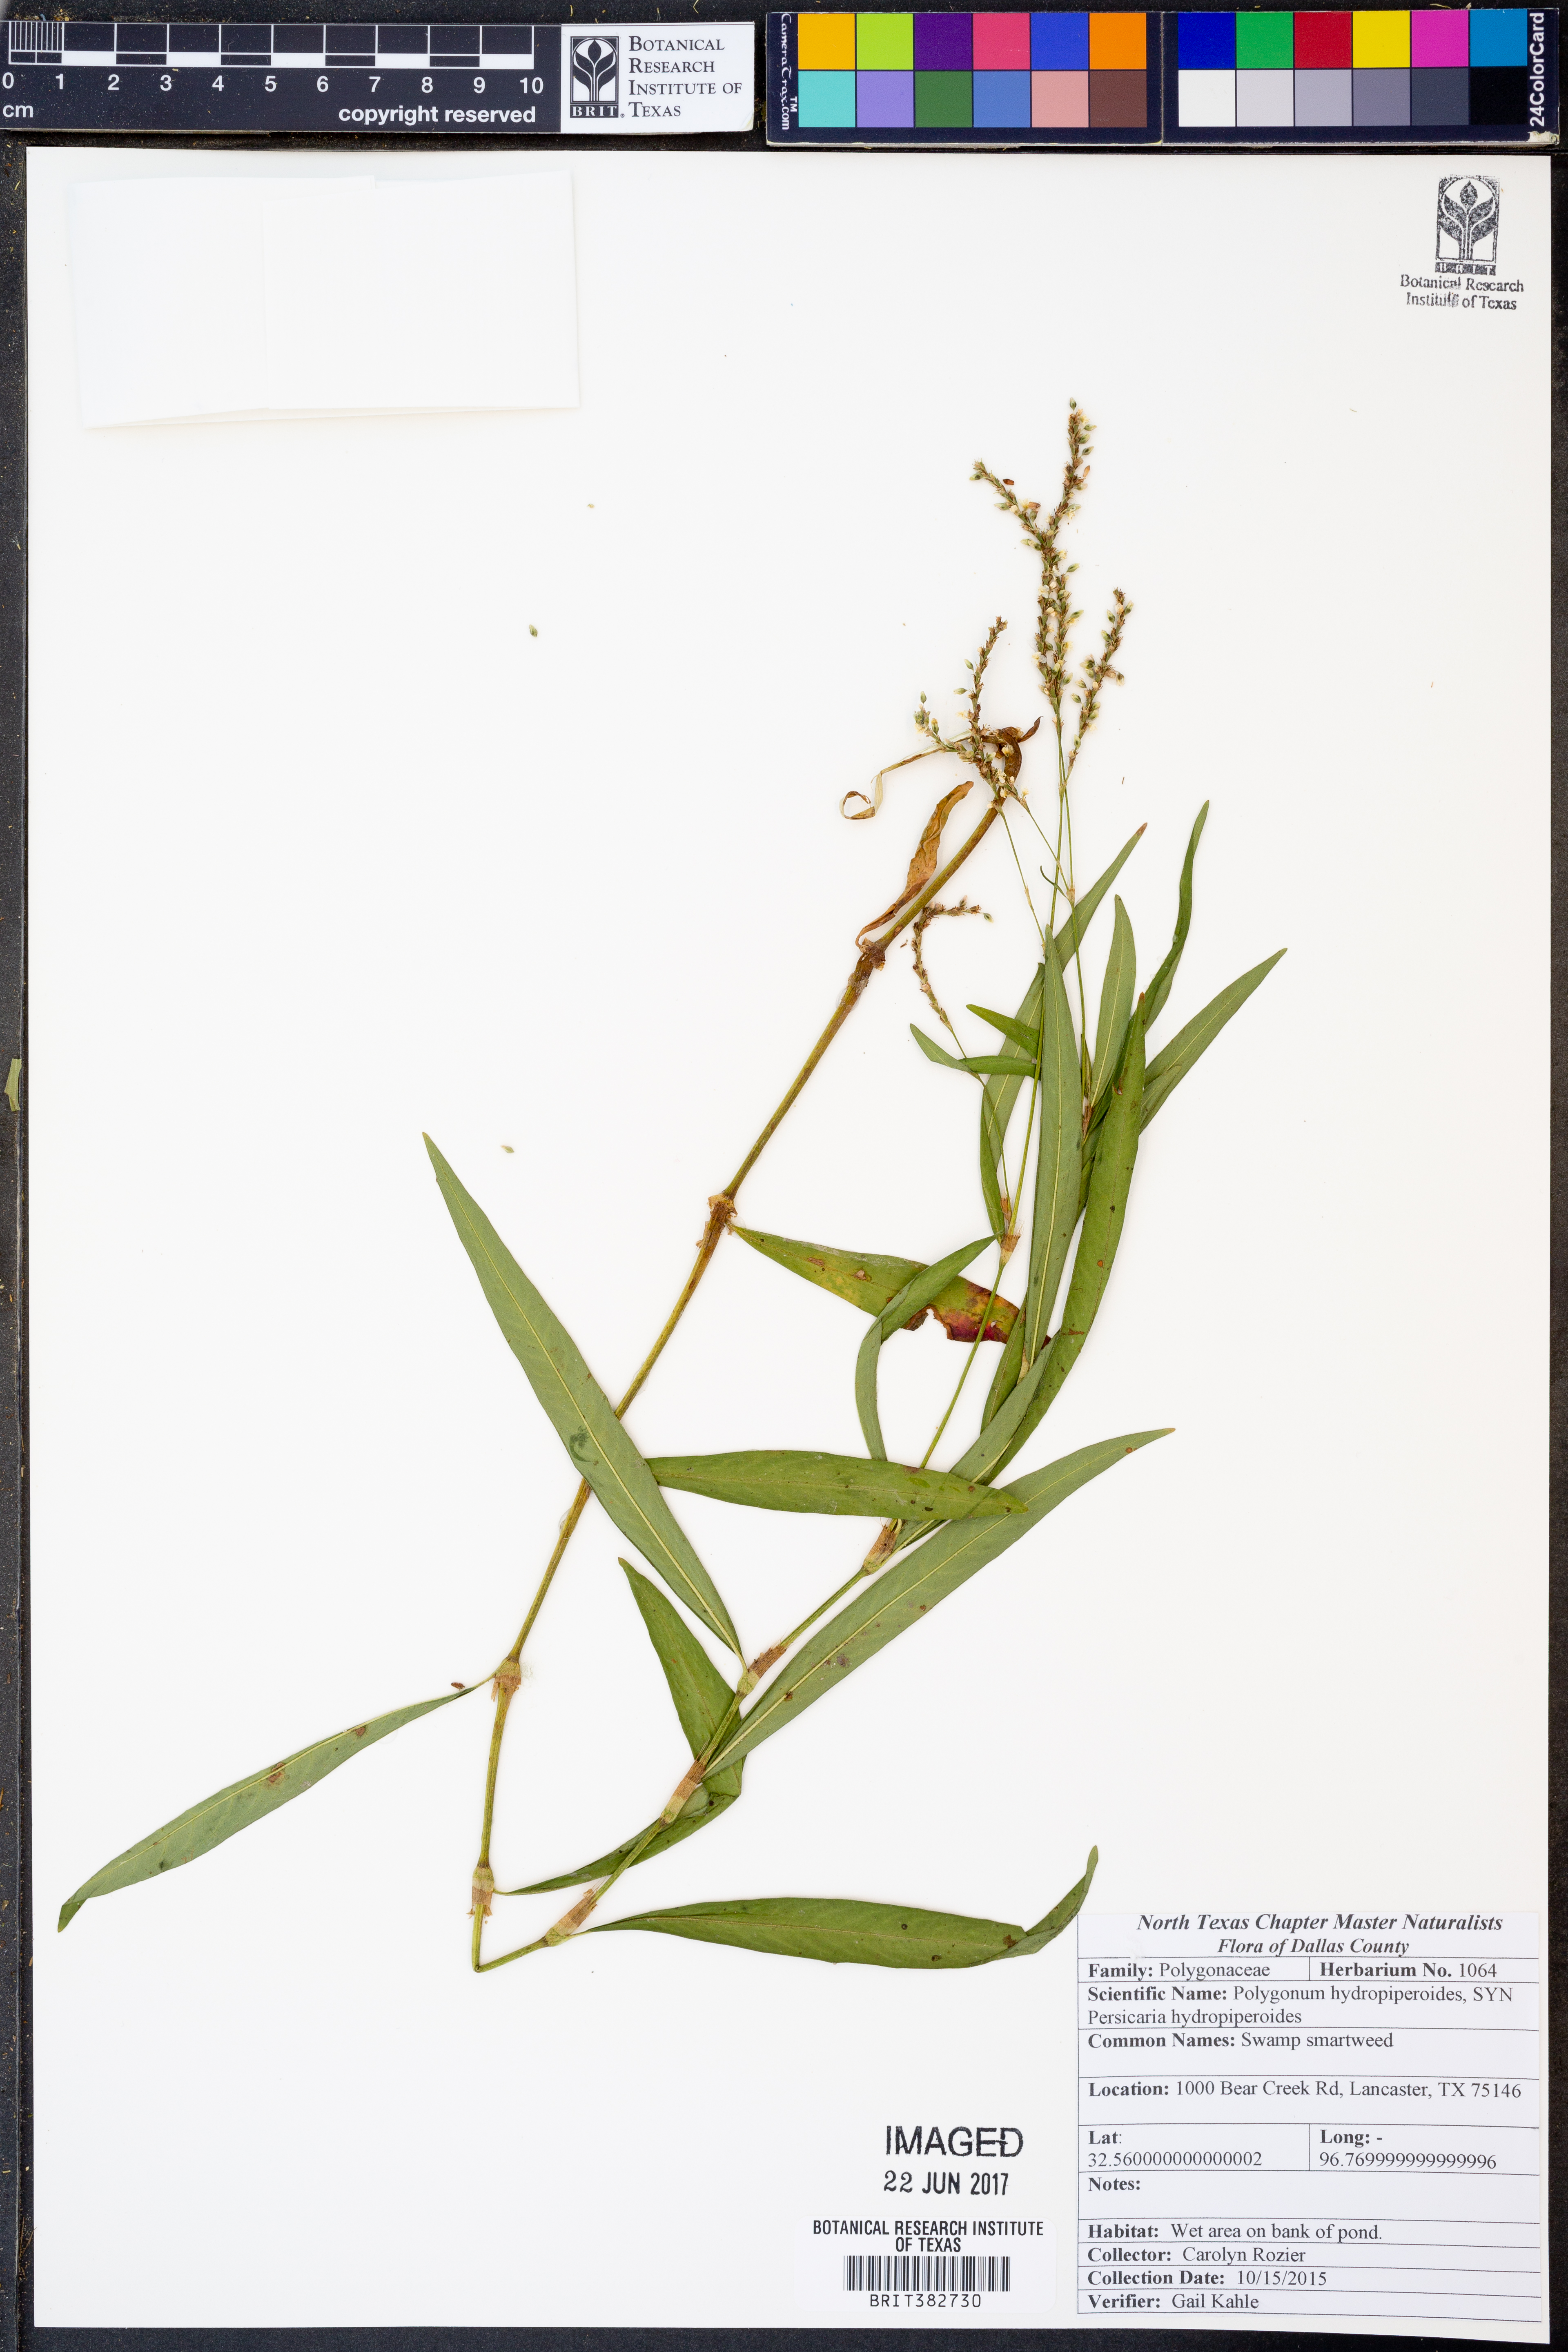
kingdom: Plantae
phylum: Tracheophyta
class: Magnoliopsida
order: Caryophyllales
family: Polygonaceae
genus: Persicaria
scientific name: Persicaria hydropiperoides
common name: Swamp smartweed
